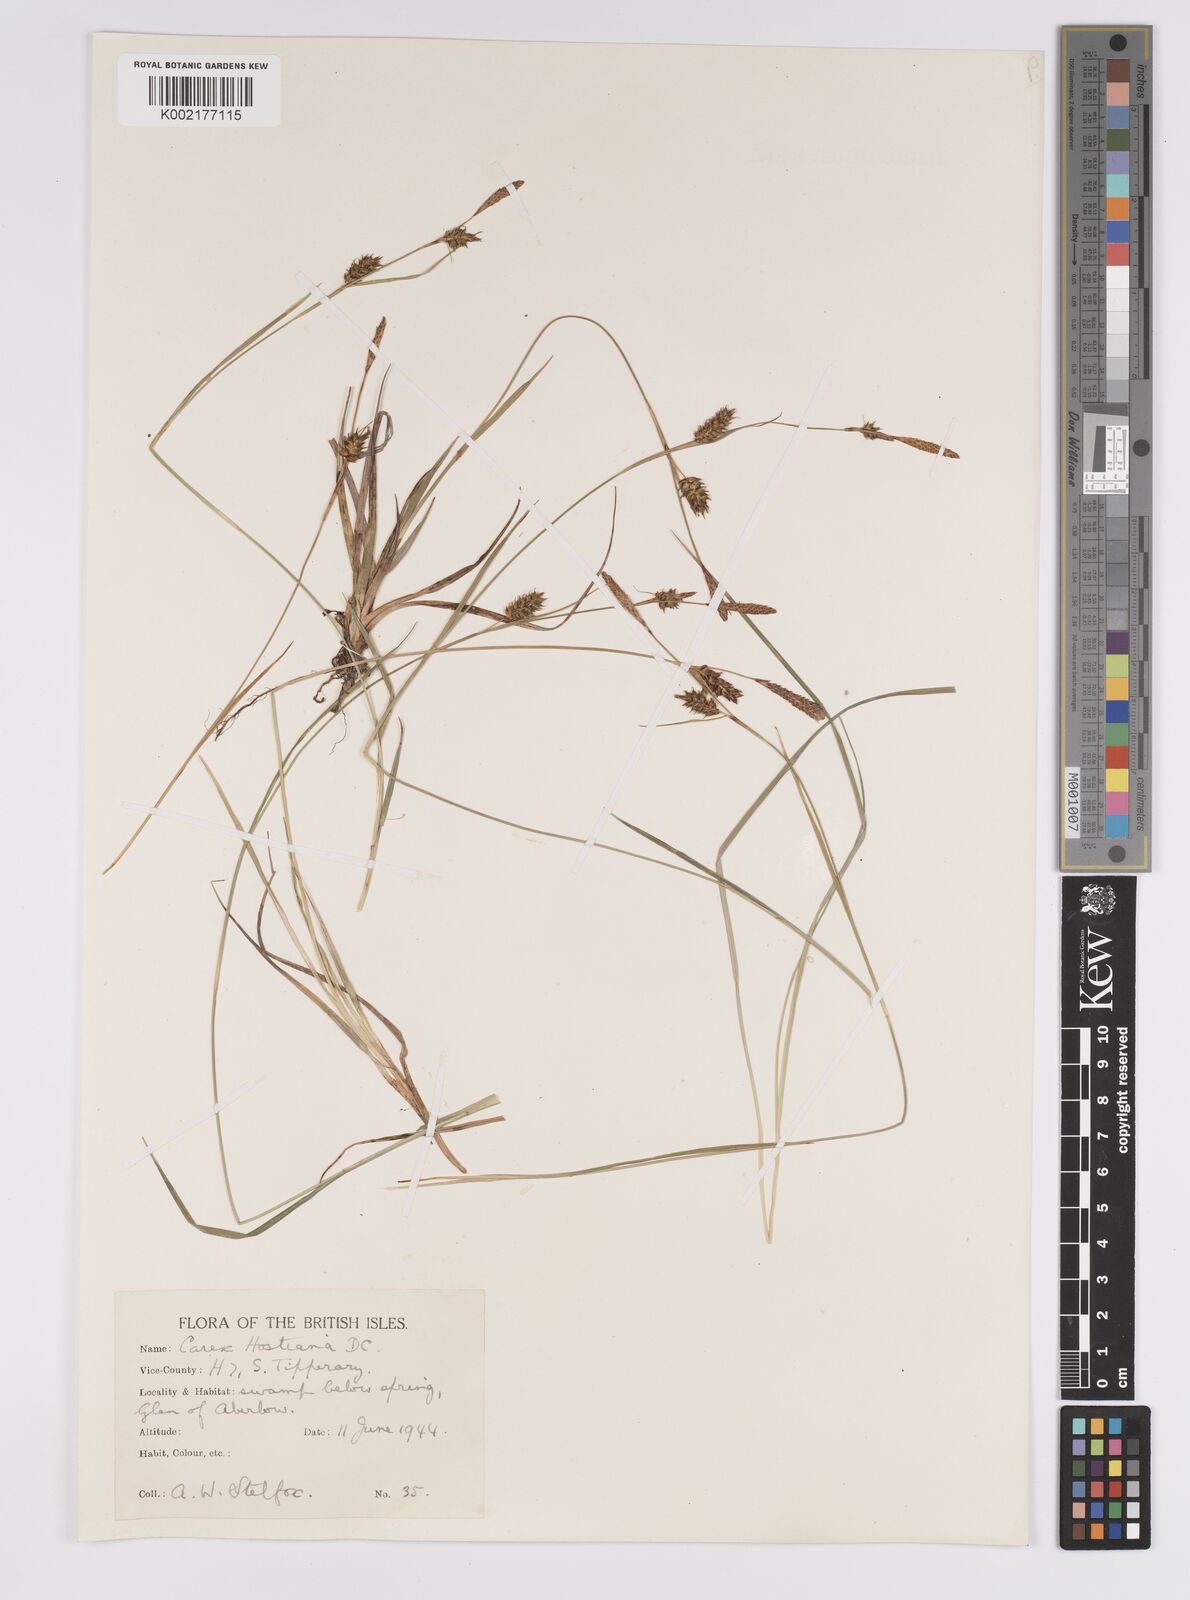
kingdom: Plantae
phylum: Tracheophyta
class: Liliopsida
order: Poales
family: Cyperaceae
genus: Carex
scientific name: Carex hostiana
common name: Tawny sedge
